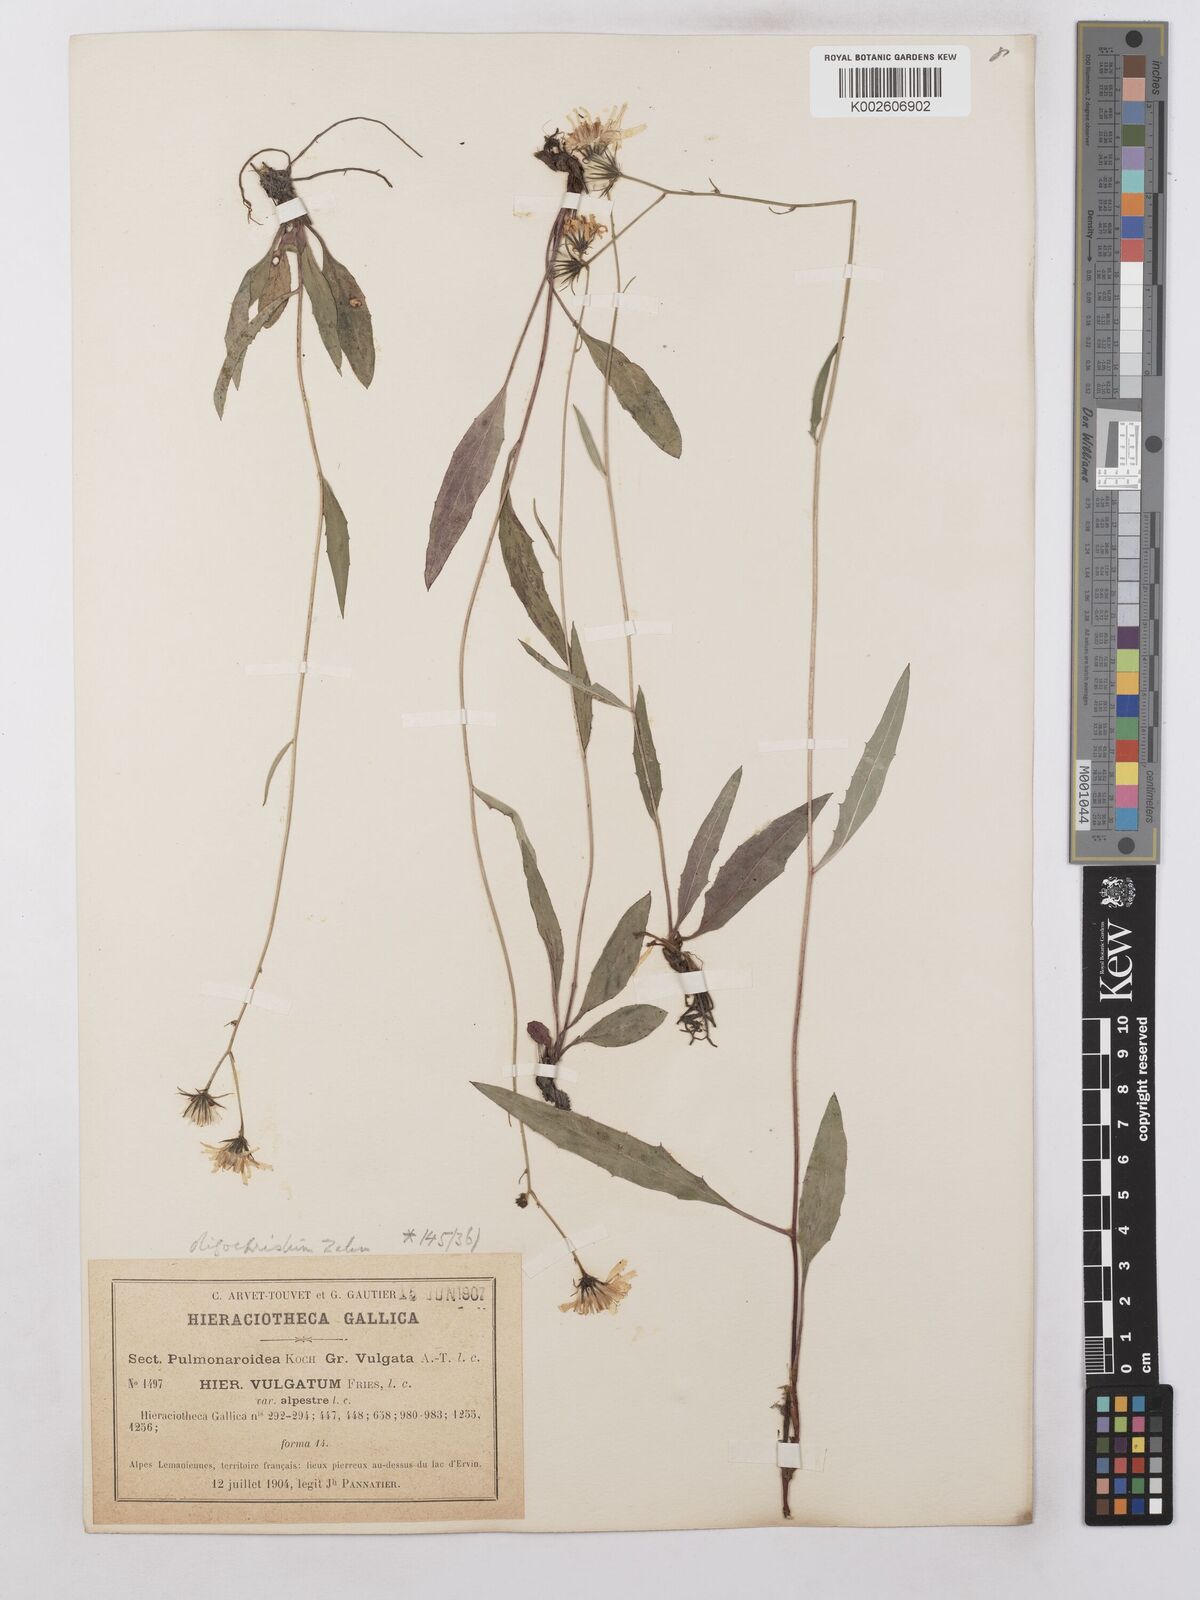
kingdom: Plantae
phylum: Tracheophyta
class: Magnoliopsida
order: Asterales
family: Asteraceae
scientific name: Asteraceae
